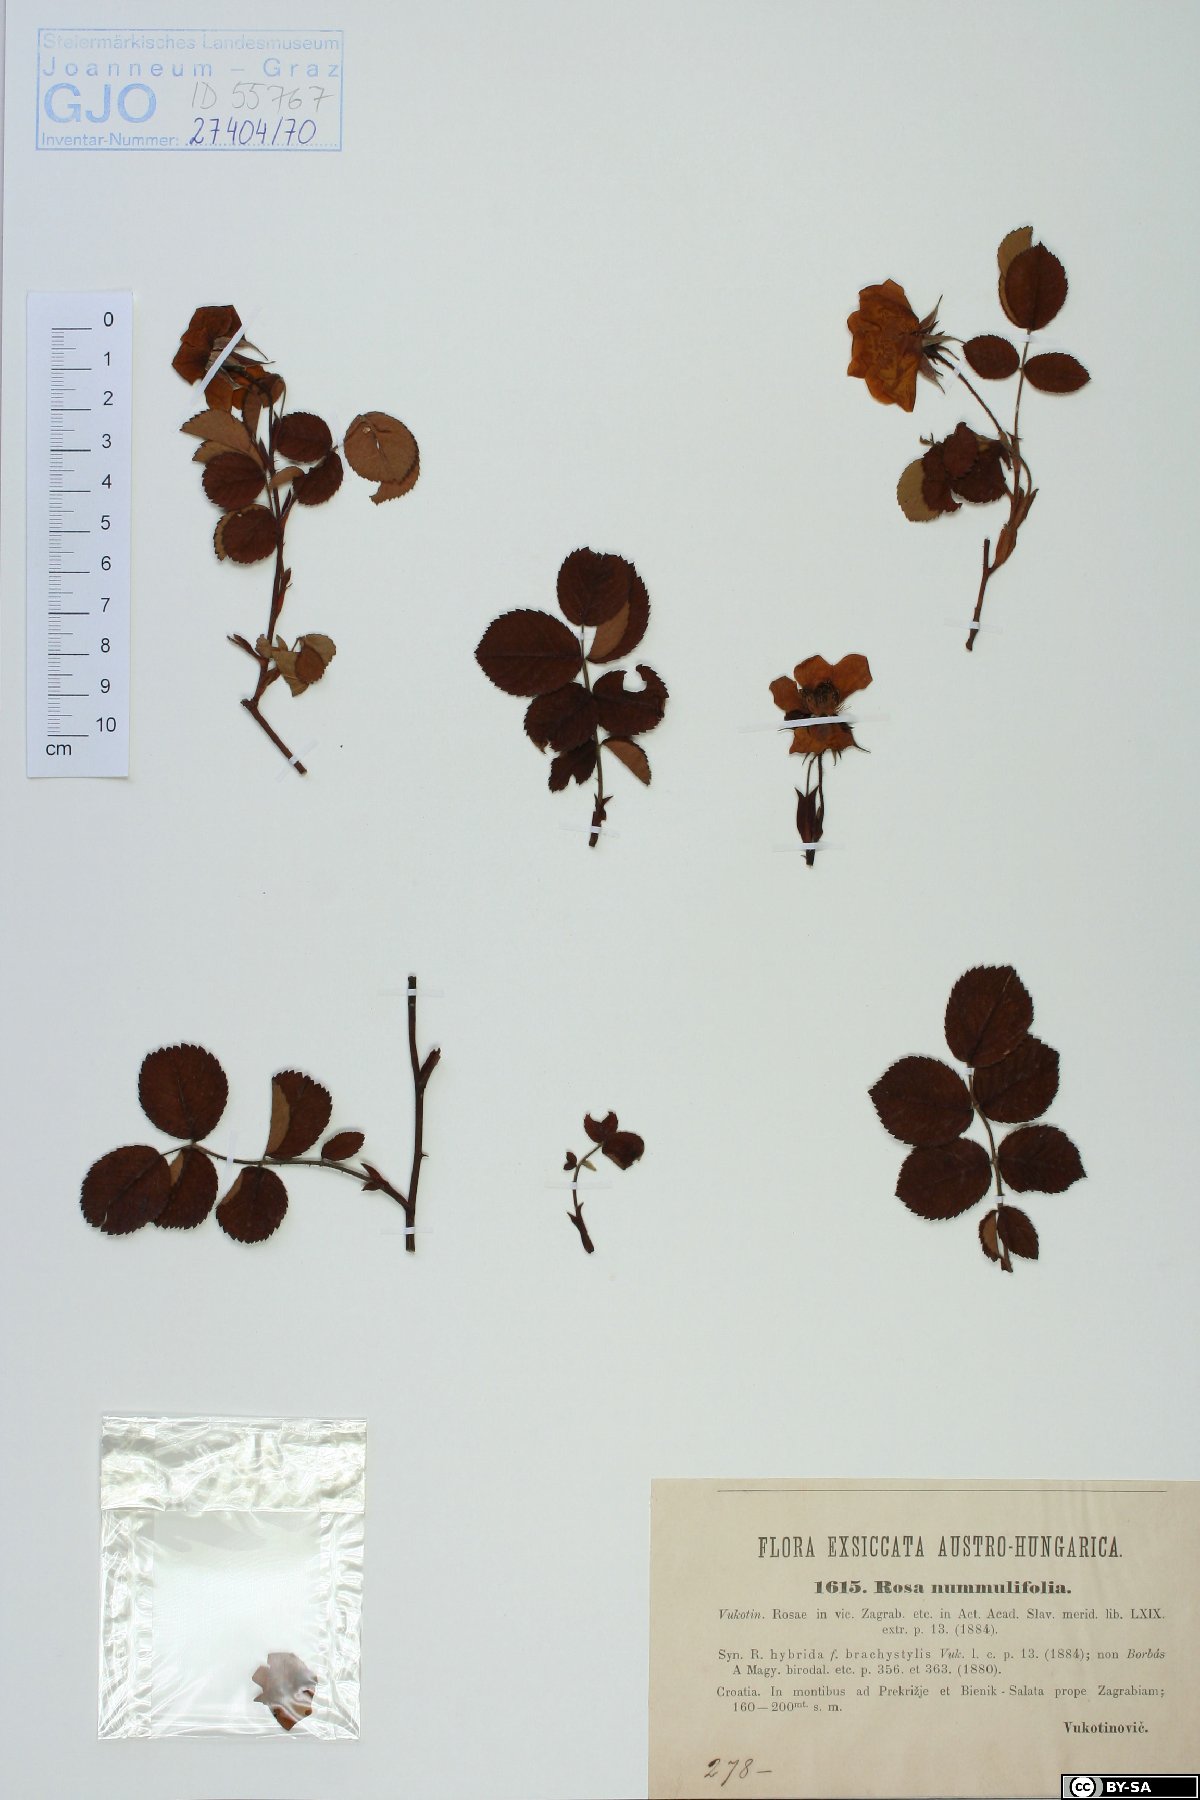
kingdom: Plantae
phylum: Tracheophyta
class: Magnoliopsida
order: Rosales
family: Rosaceae
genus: Rosa
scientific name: Rosa pendulina
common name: Alpine rose
